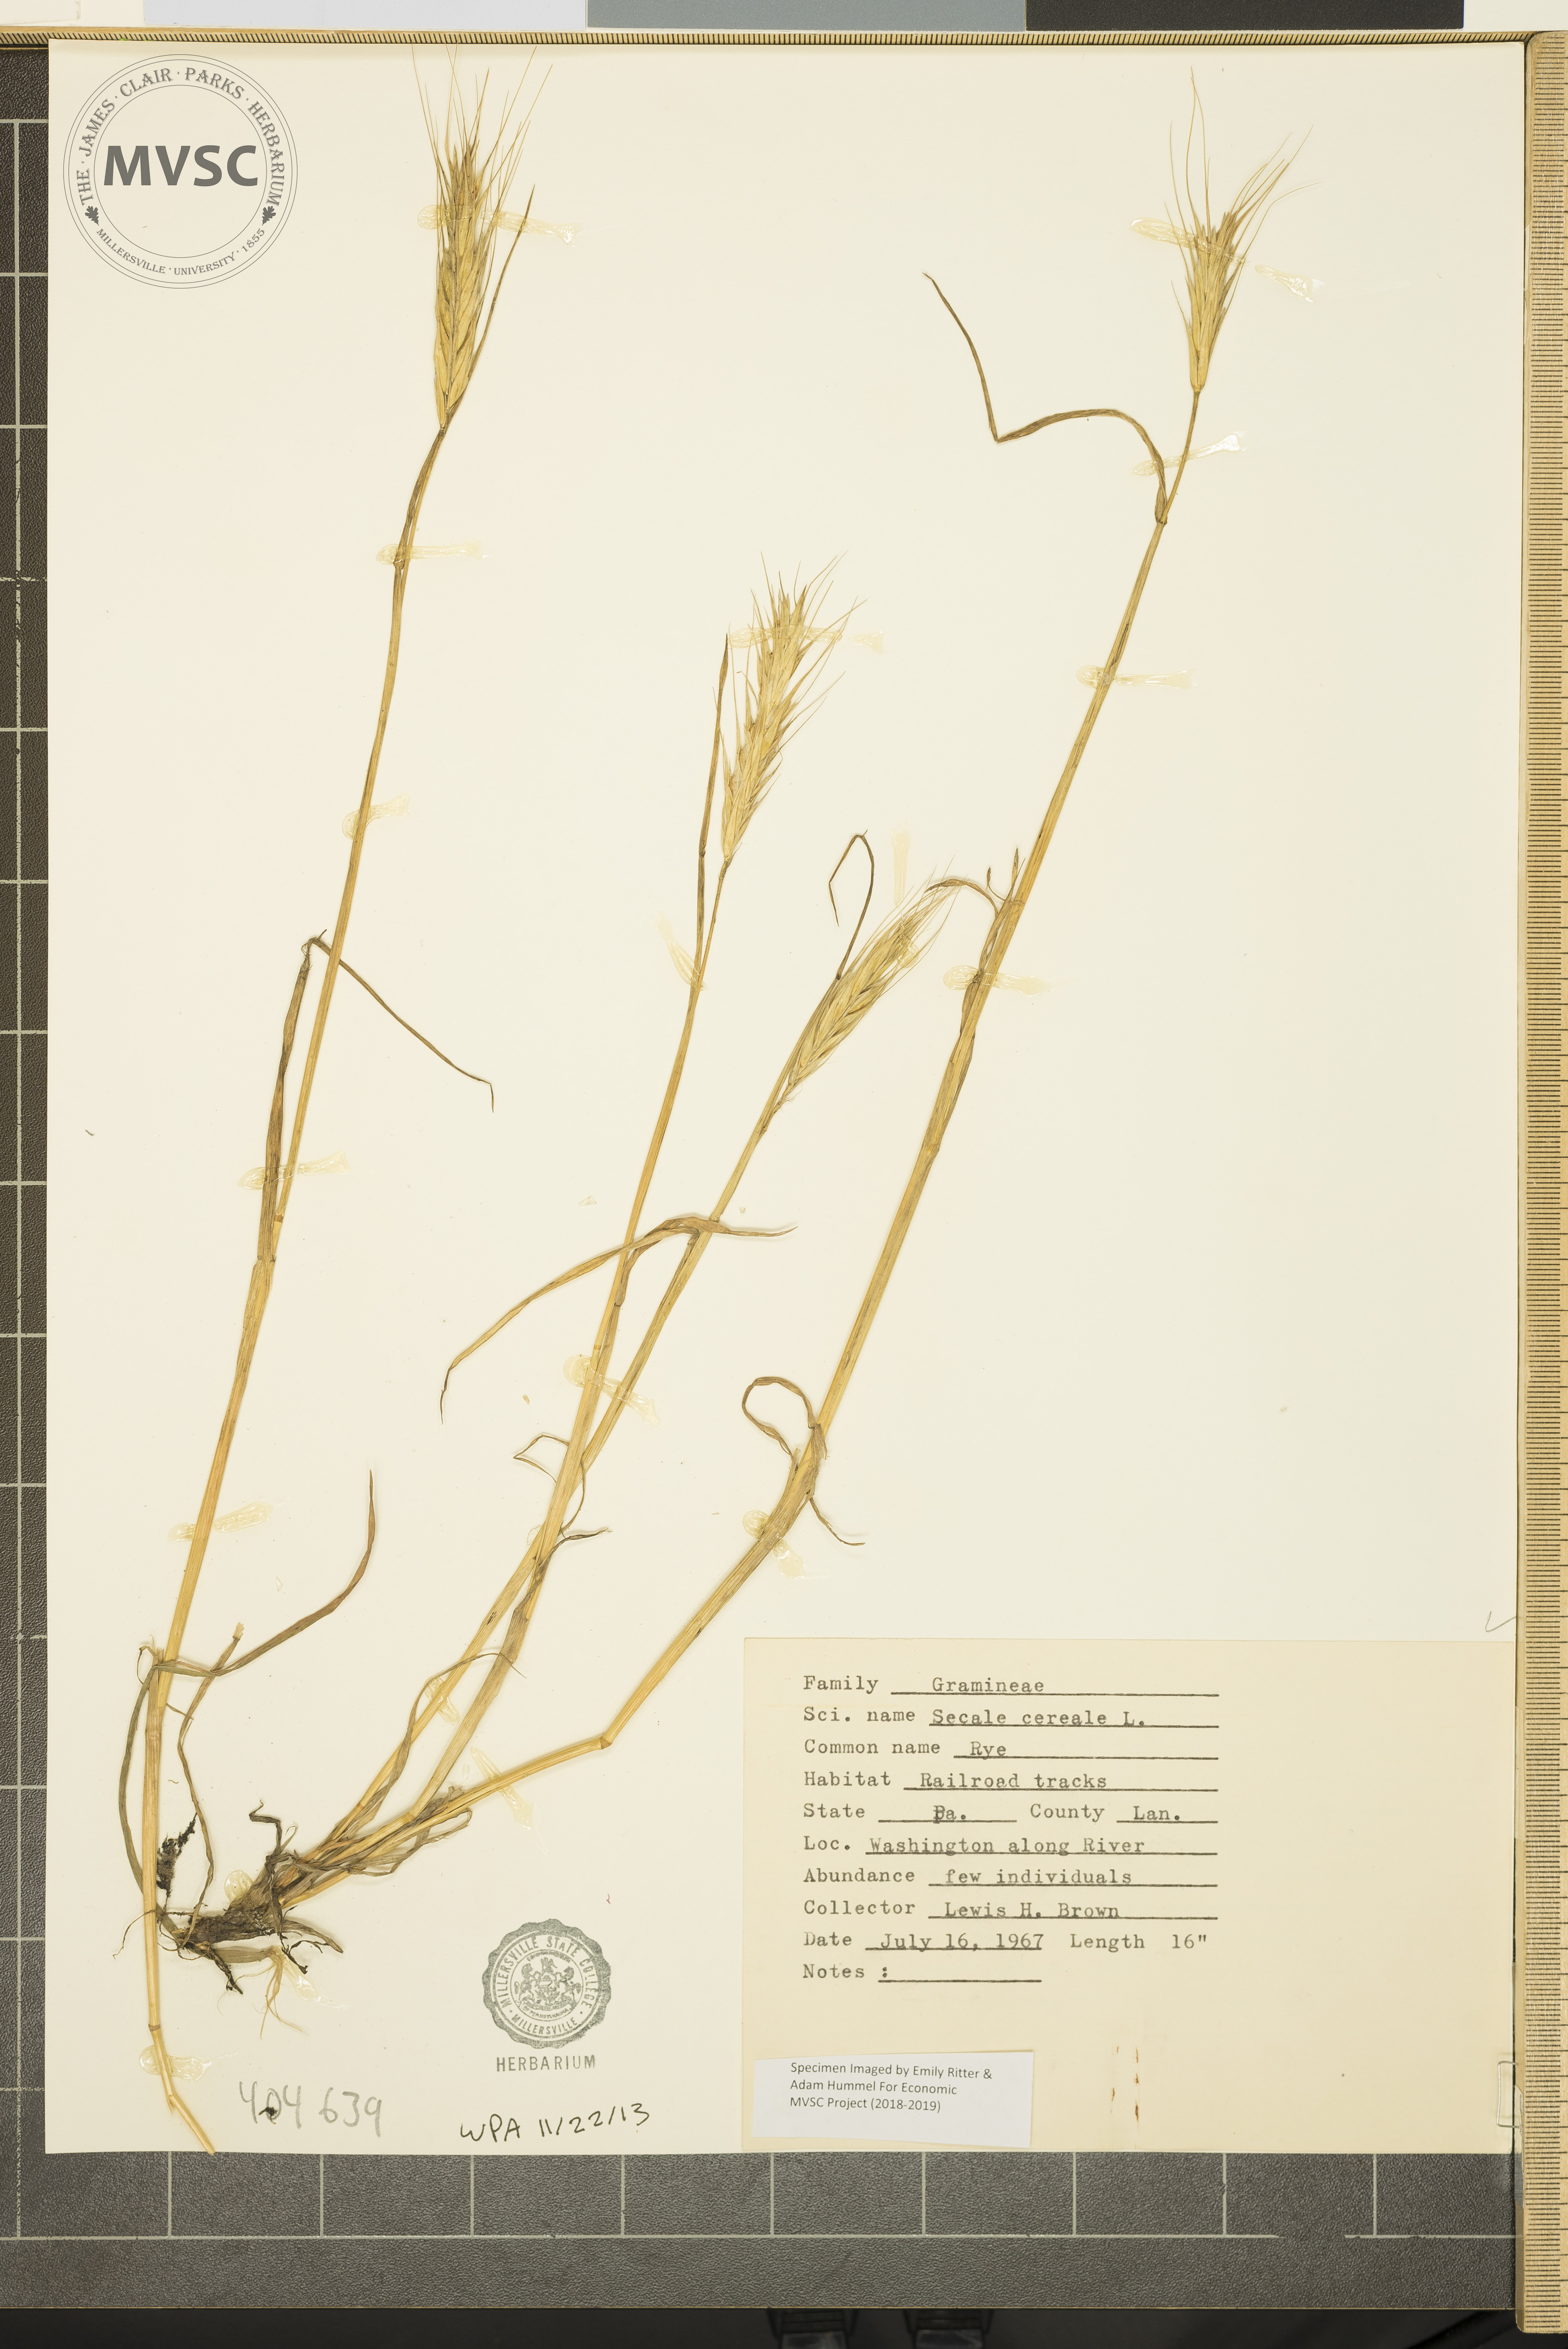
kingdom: Plantae
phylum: Tracheophyta
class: Liliopsida
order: Poales
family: Poaceae
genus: Secale
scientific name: Secale cereale
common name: Rye
